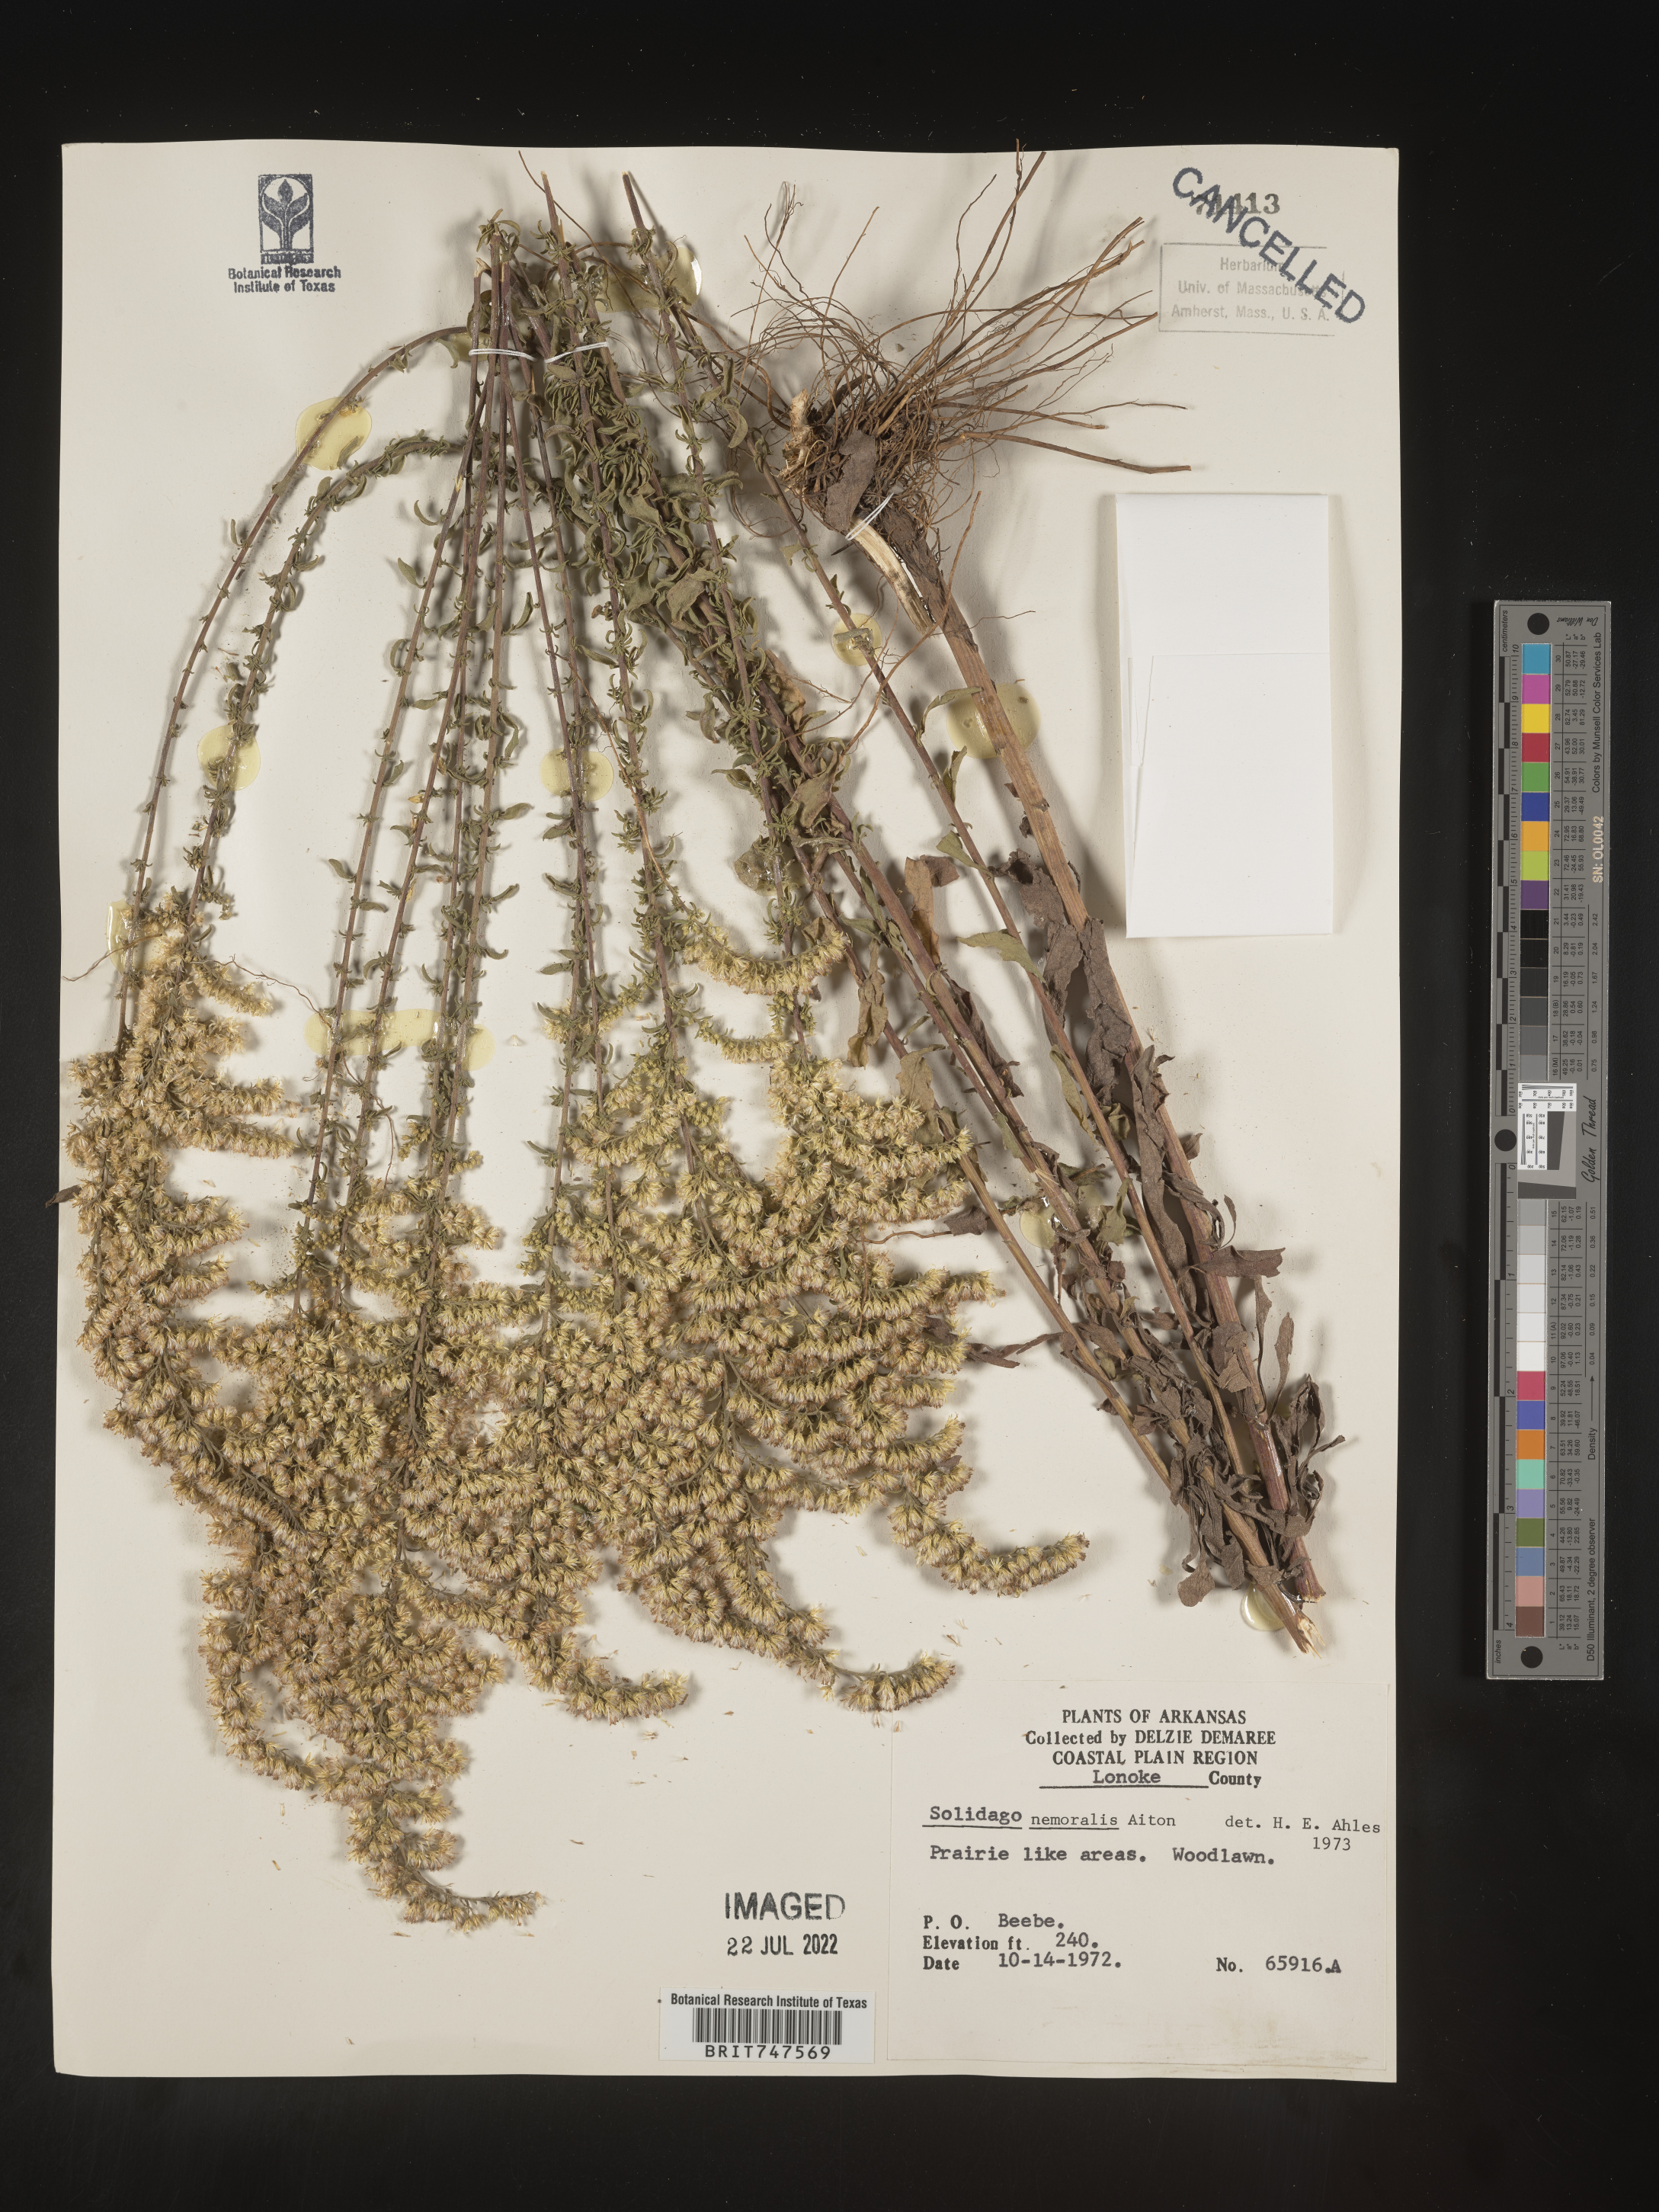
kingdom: Plantae
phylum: Tracheophyta
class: Magnoliopsida
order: Asterales
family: Asteraceae
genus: Solidago
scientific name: Solidago nemoralis
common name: Grey goldenrod
